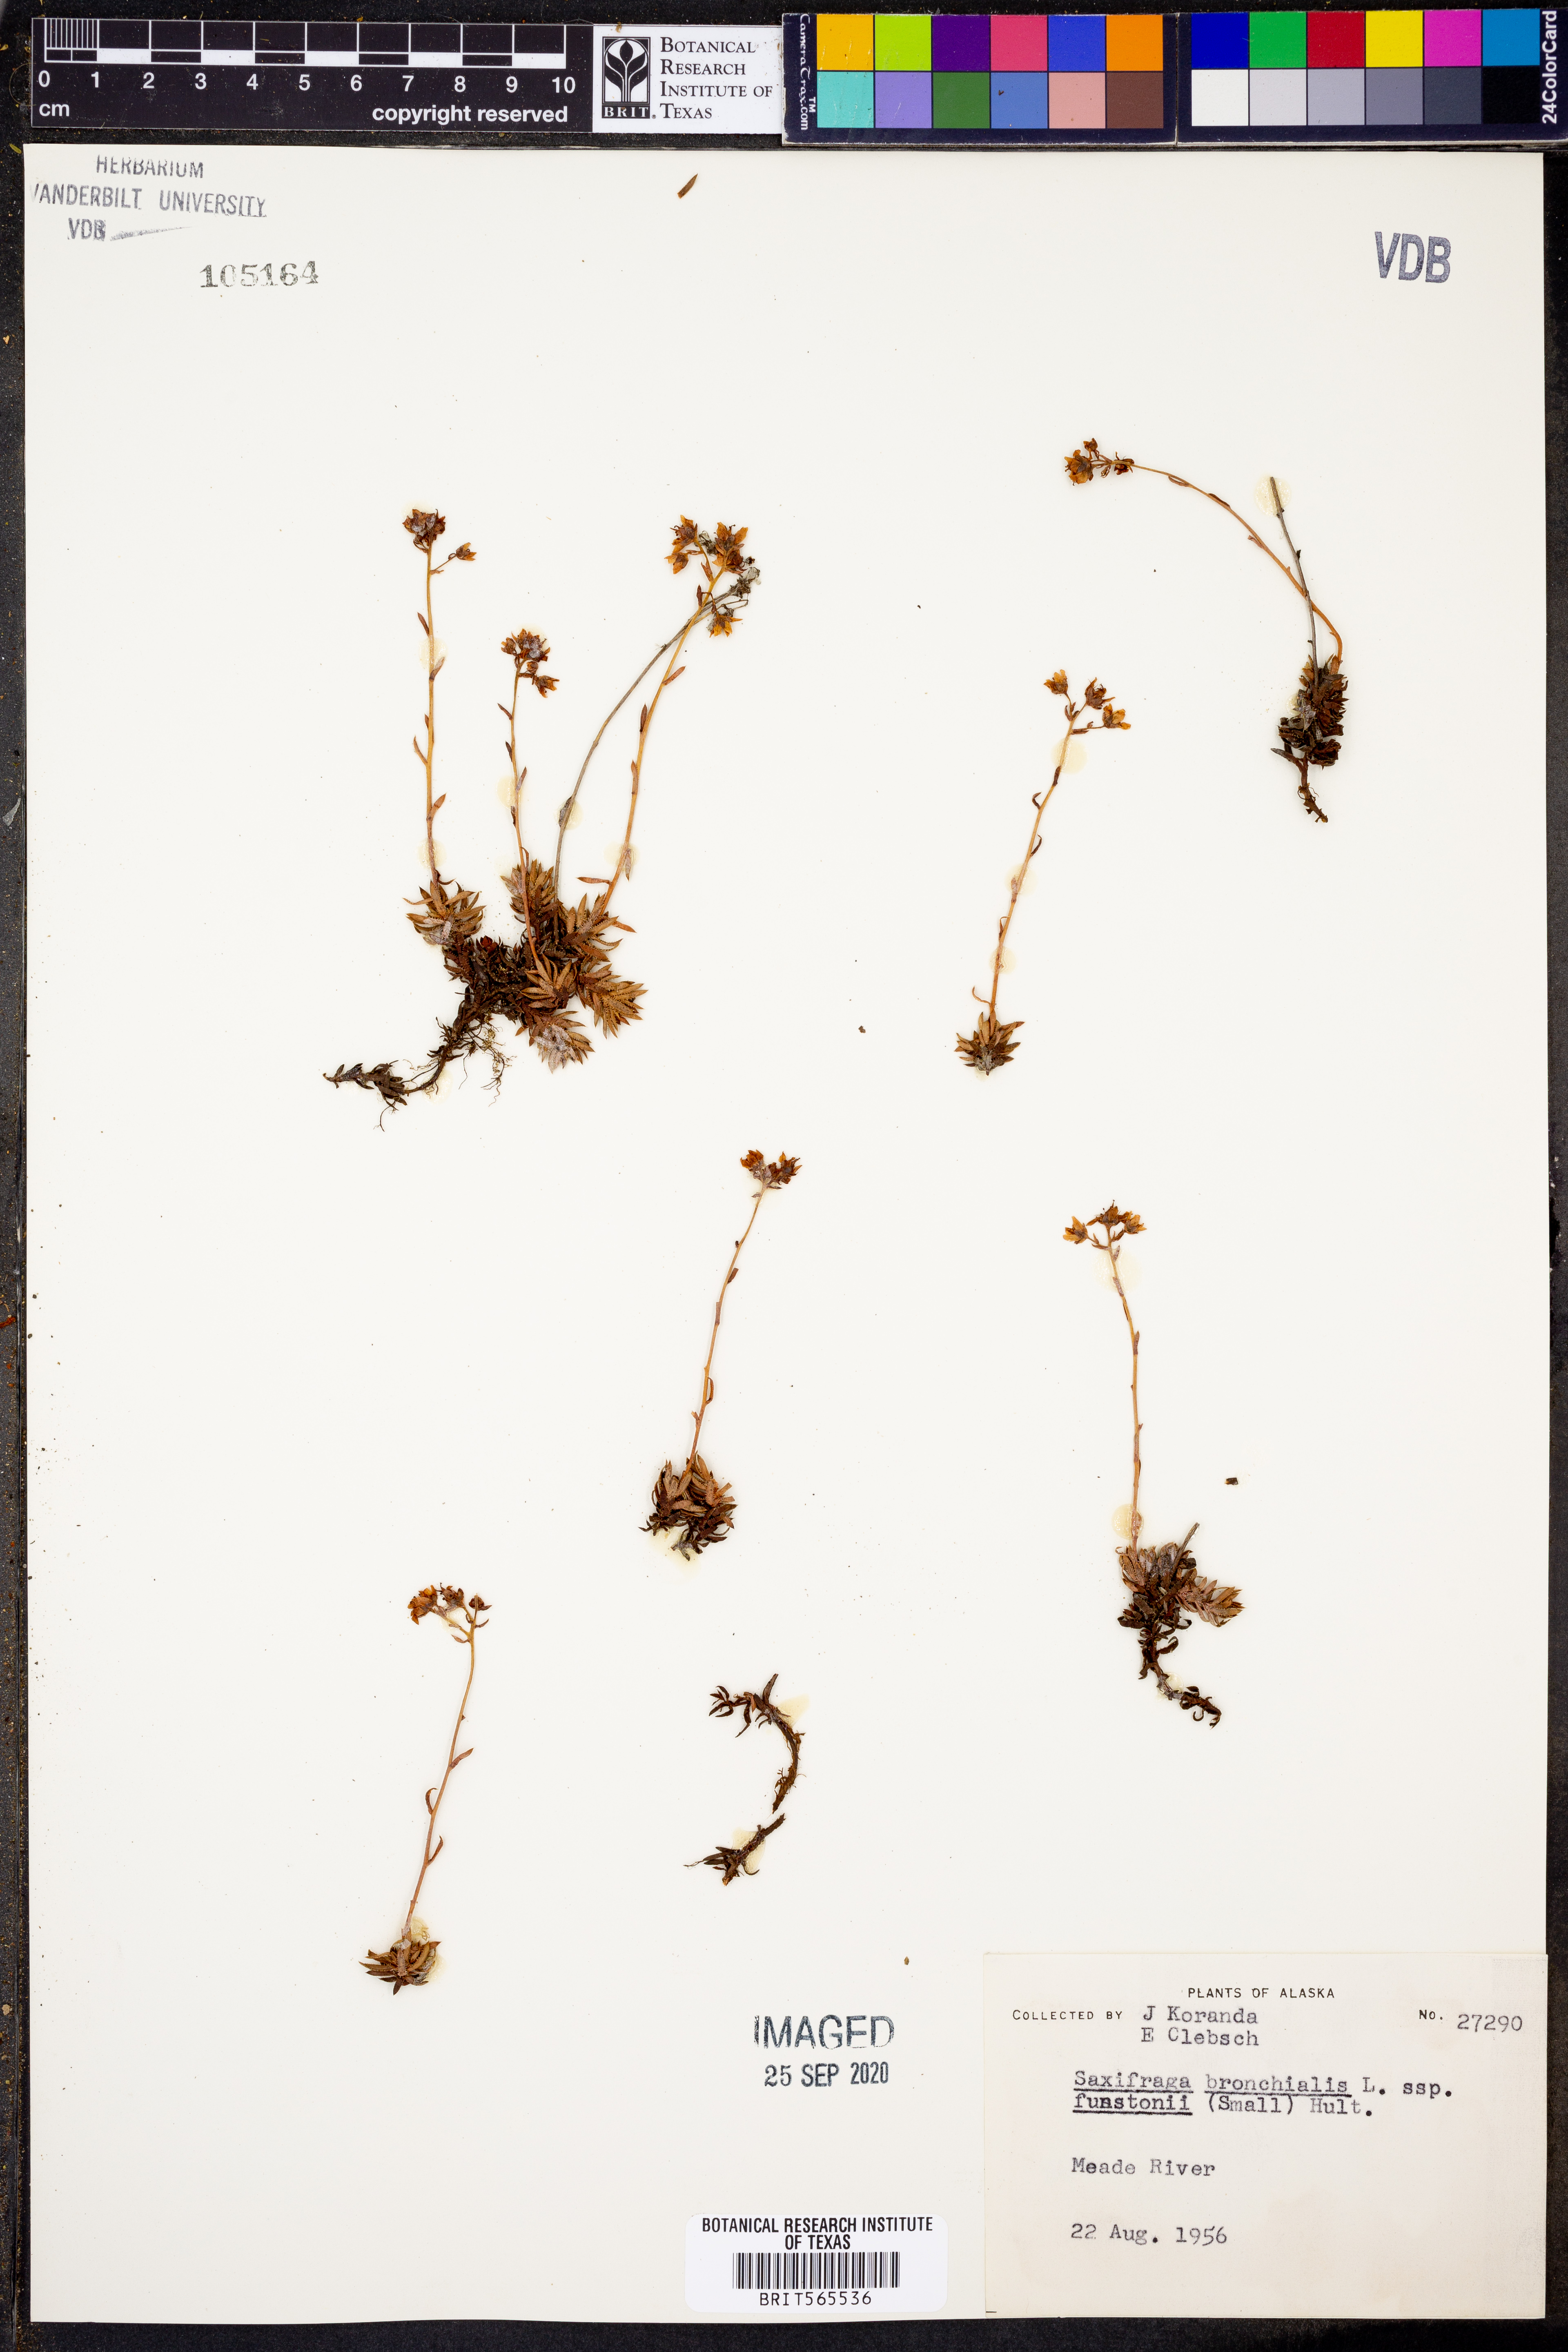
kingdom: Plantae
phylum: Tracheophyta
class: Magnoliopsida
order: Saxifragales
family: Saxifragaceae
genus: Saxifraga
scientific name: Saxifraga bronchialis
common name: Matted saxifrage
